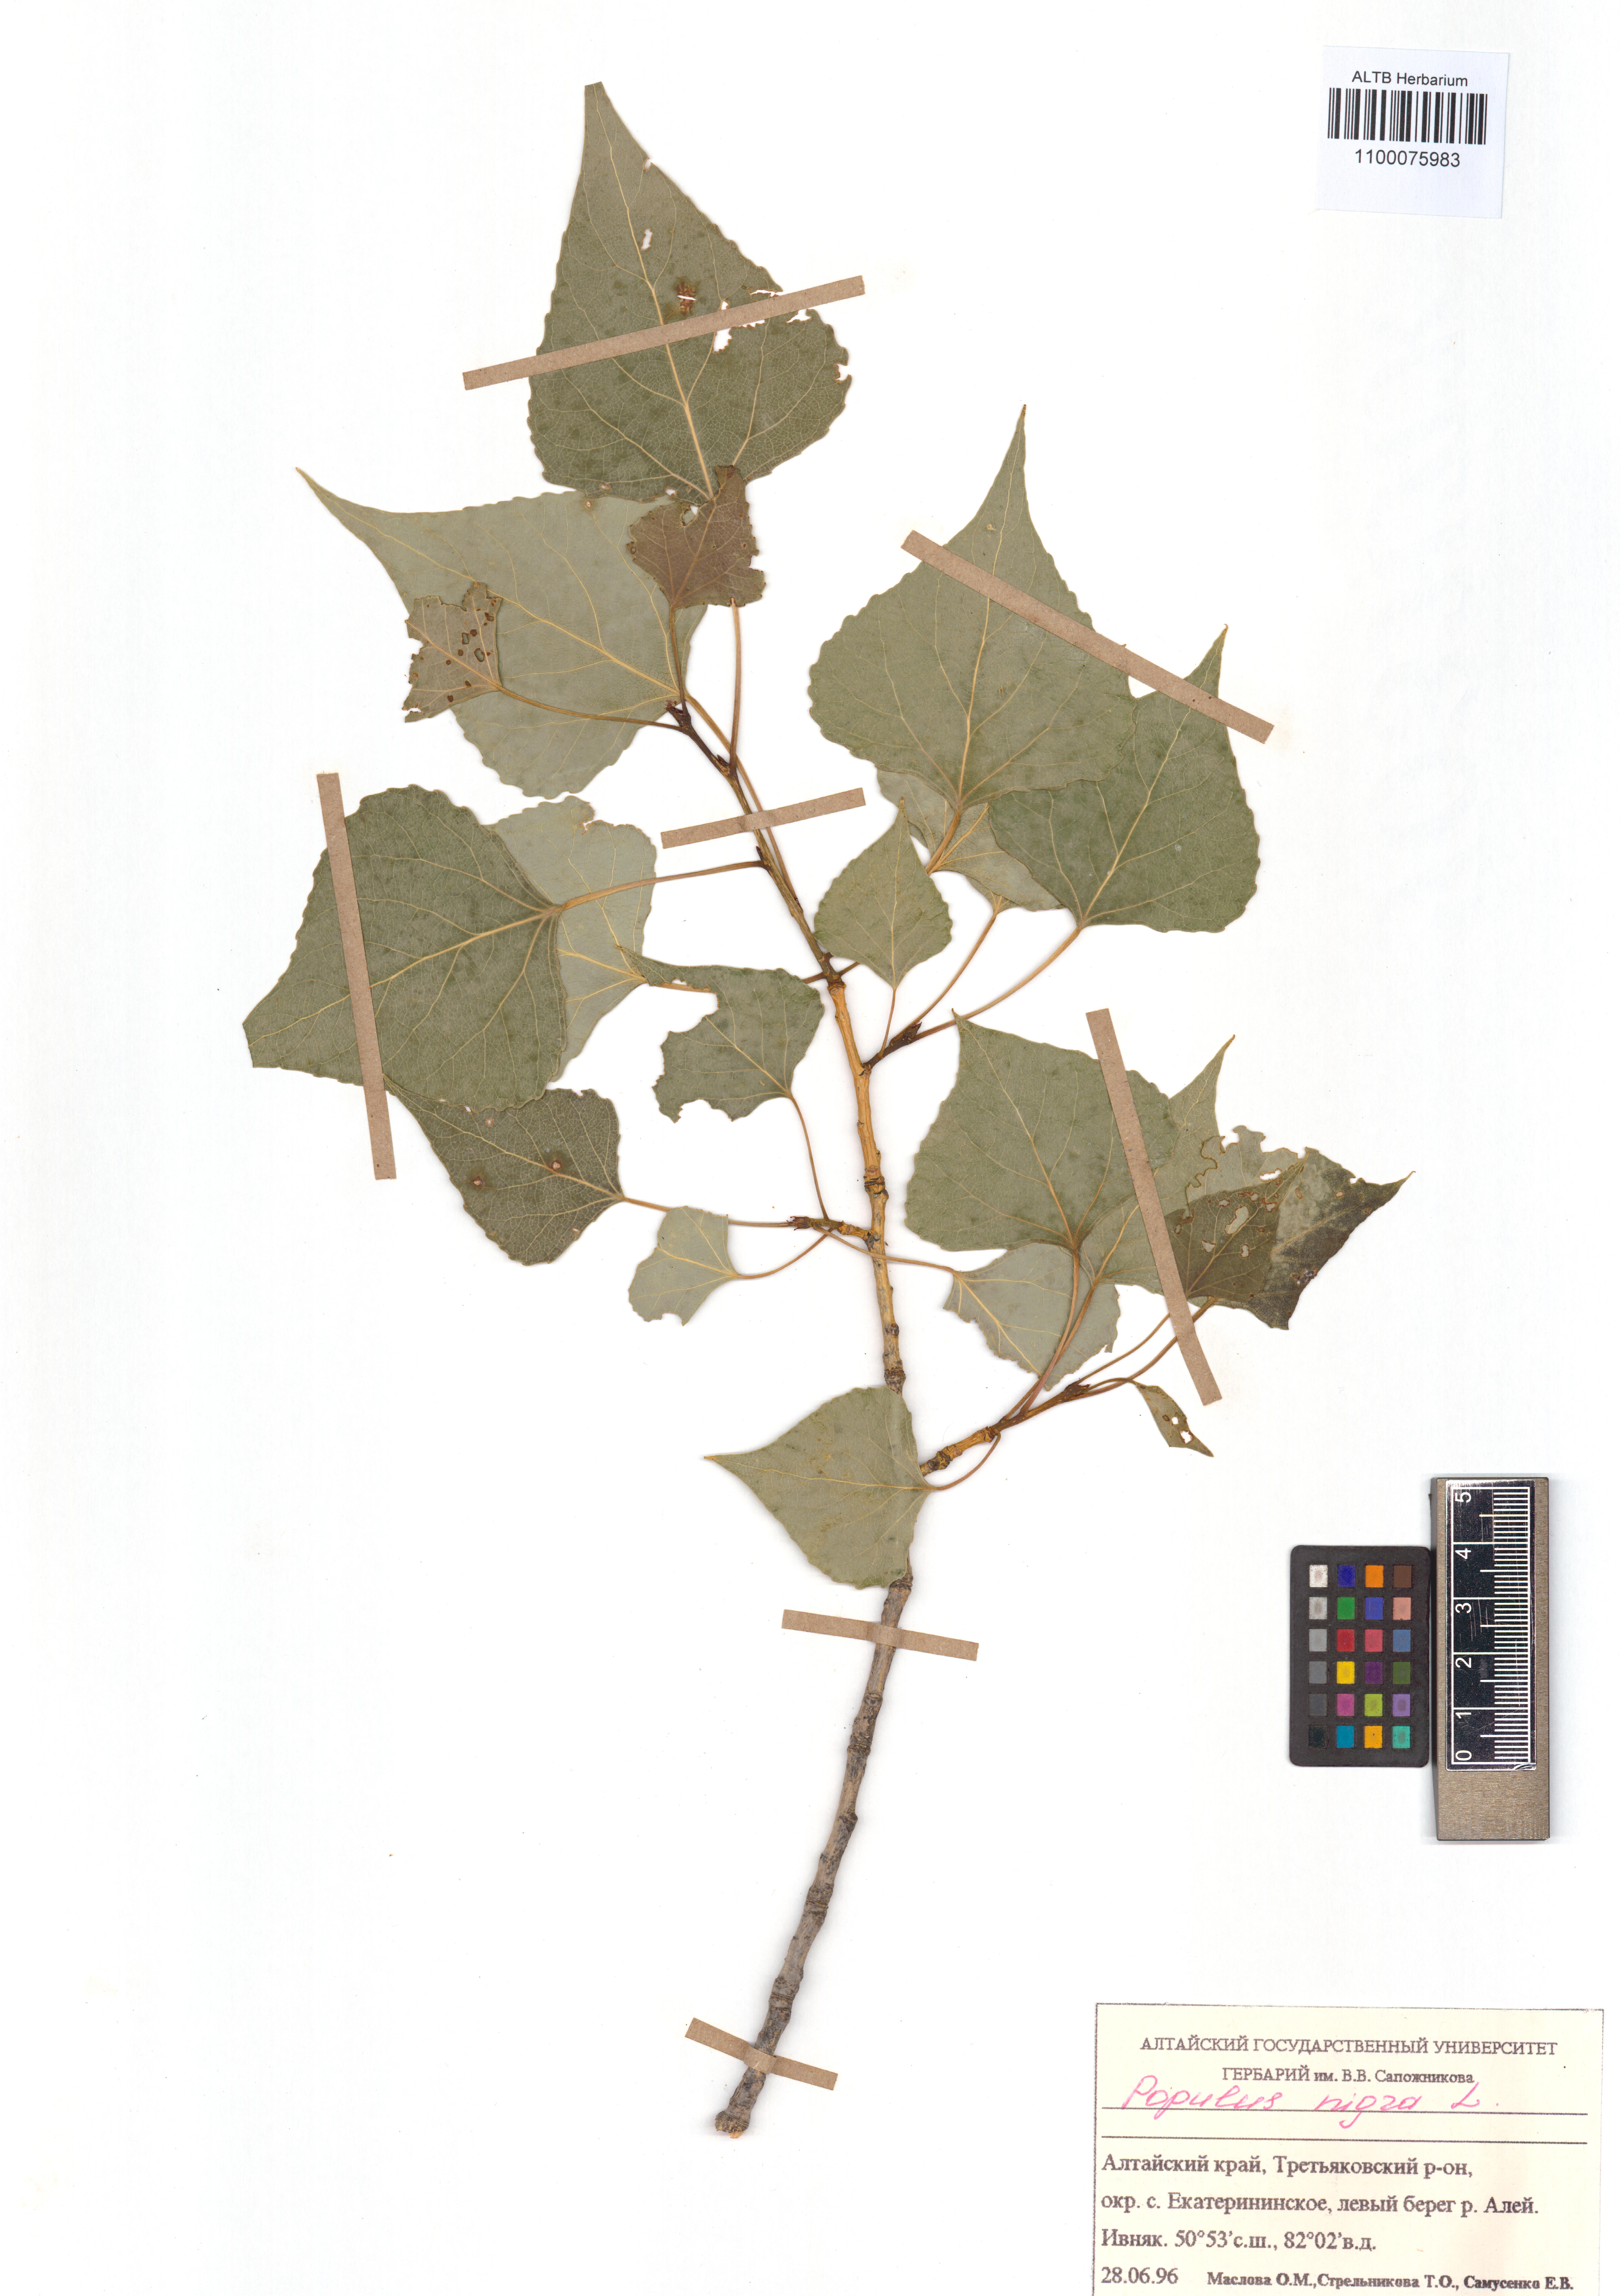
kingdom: Plantae
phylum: Tracheophyta
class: Magnoliopsida
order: Malpighiales
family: Salicaceae
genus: Populus
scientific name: Populus nigra
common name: Black poplar
